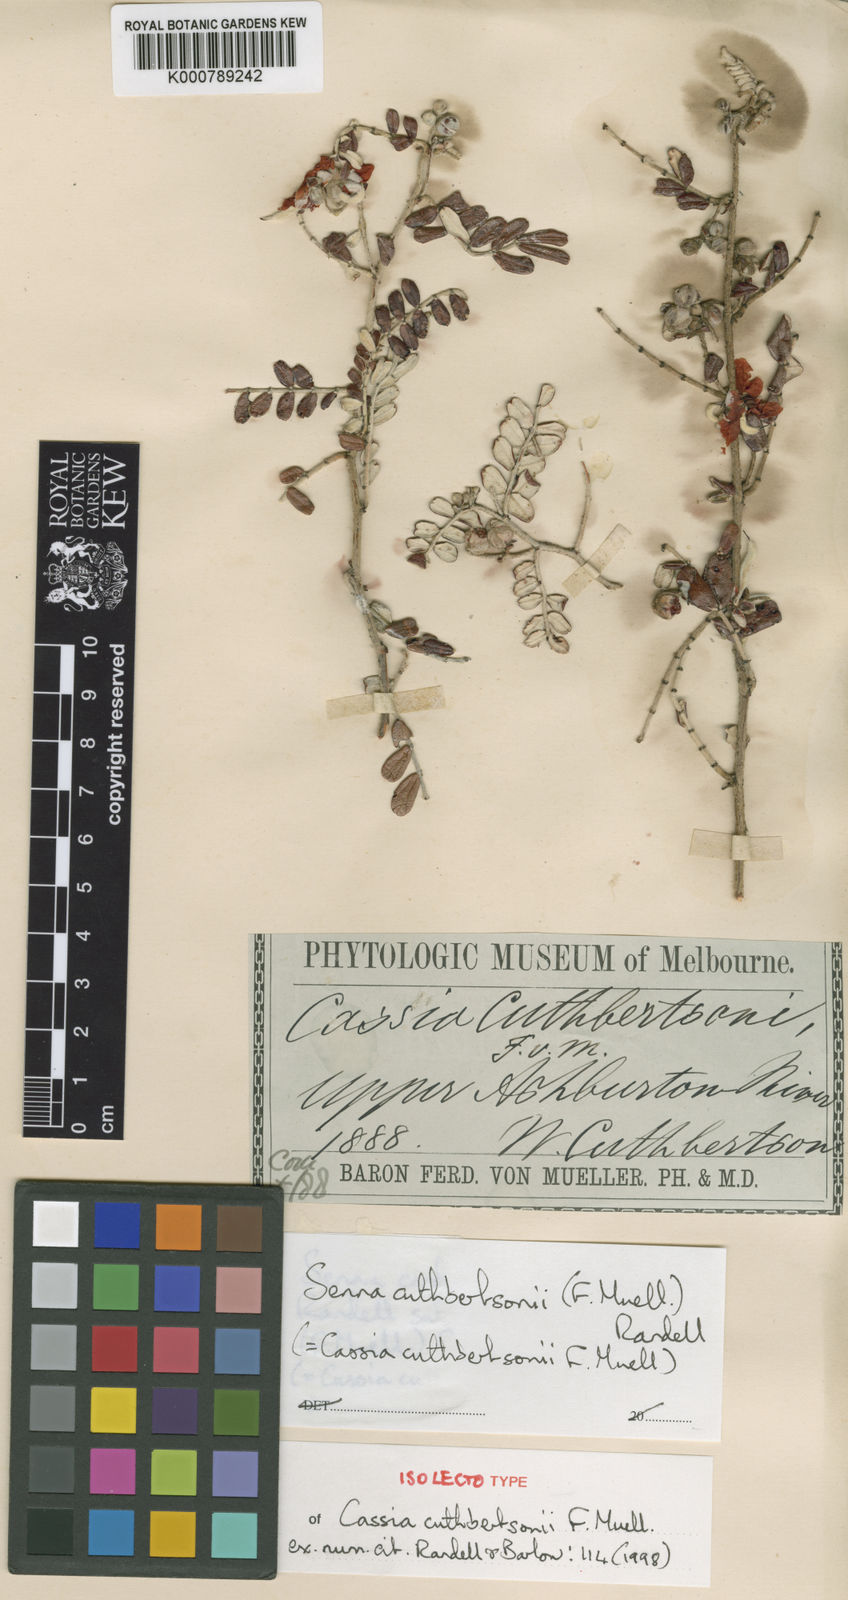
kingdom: Plantae
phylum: Tracheophyta
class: Magnoliopsida
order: Fabales
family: Fabaceae
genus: Senna
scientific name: Senna cuthbertsonii
